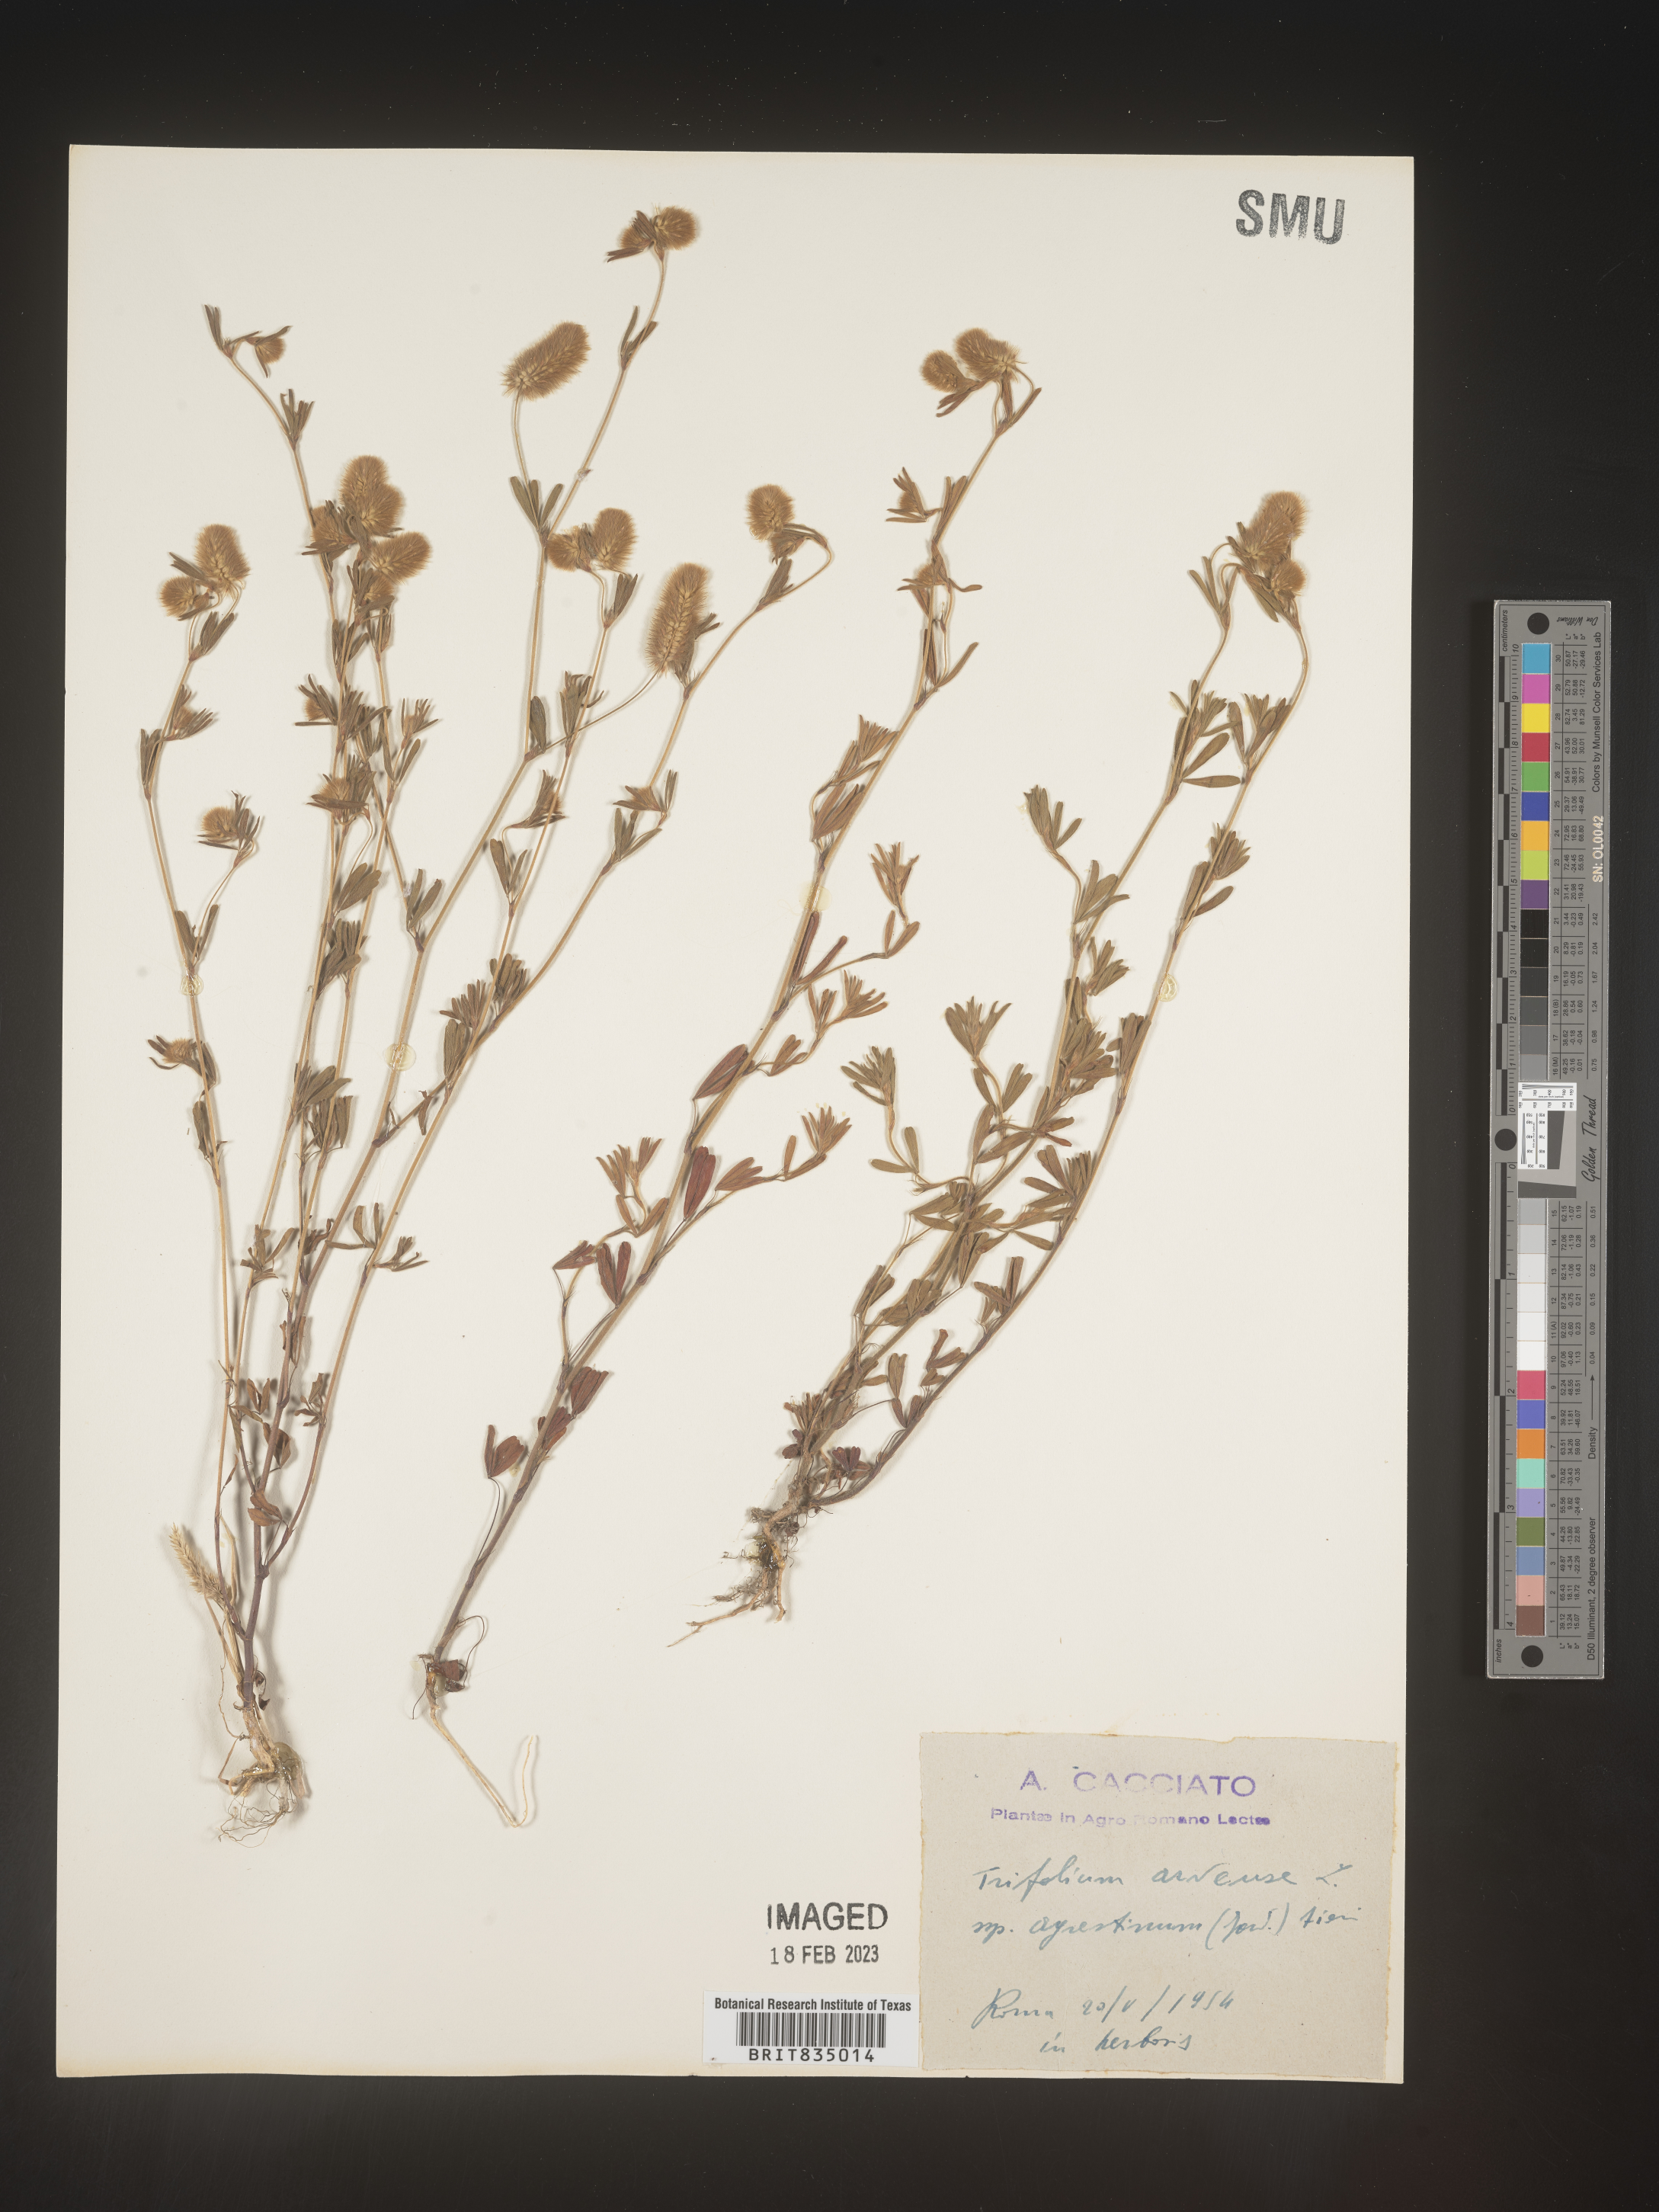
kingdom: Plantae
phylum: Tracheophyta
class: Magnoliopsida
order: Fabales
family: Fabaceae
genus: Trifolium
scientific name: Trifolium
